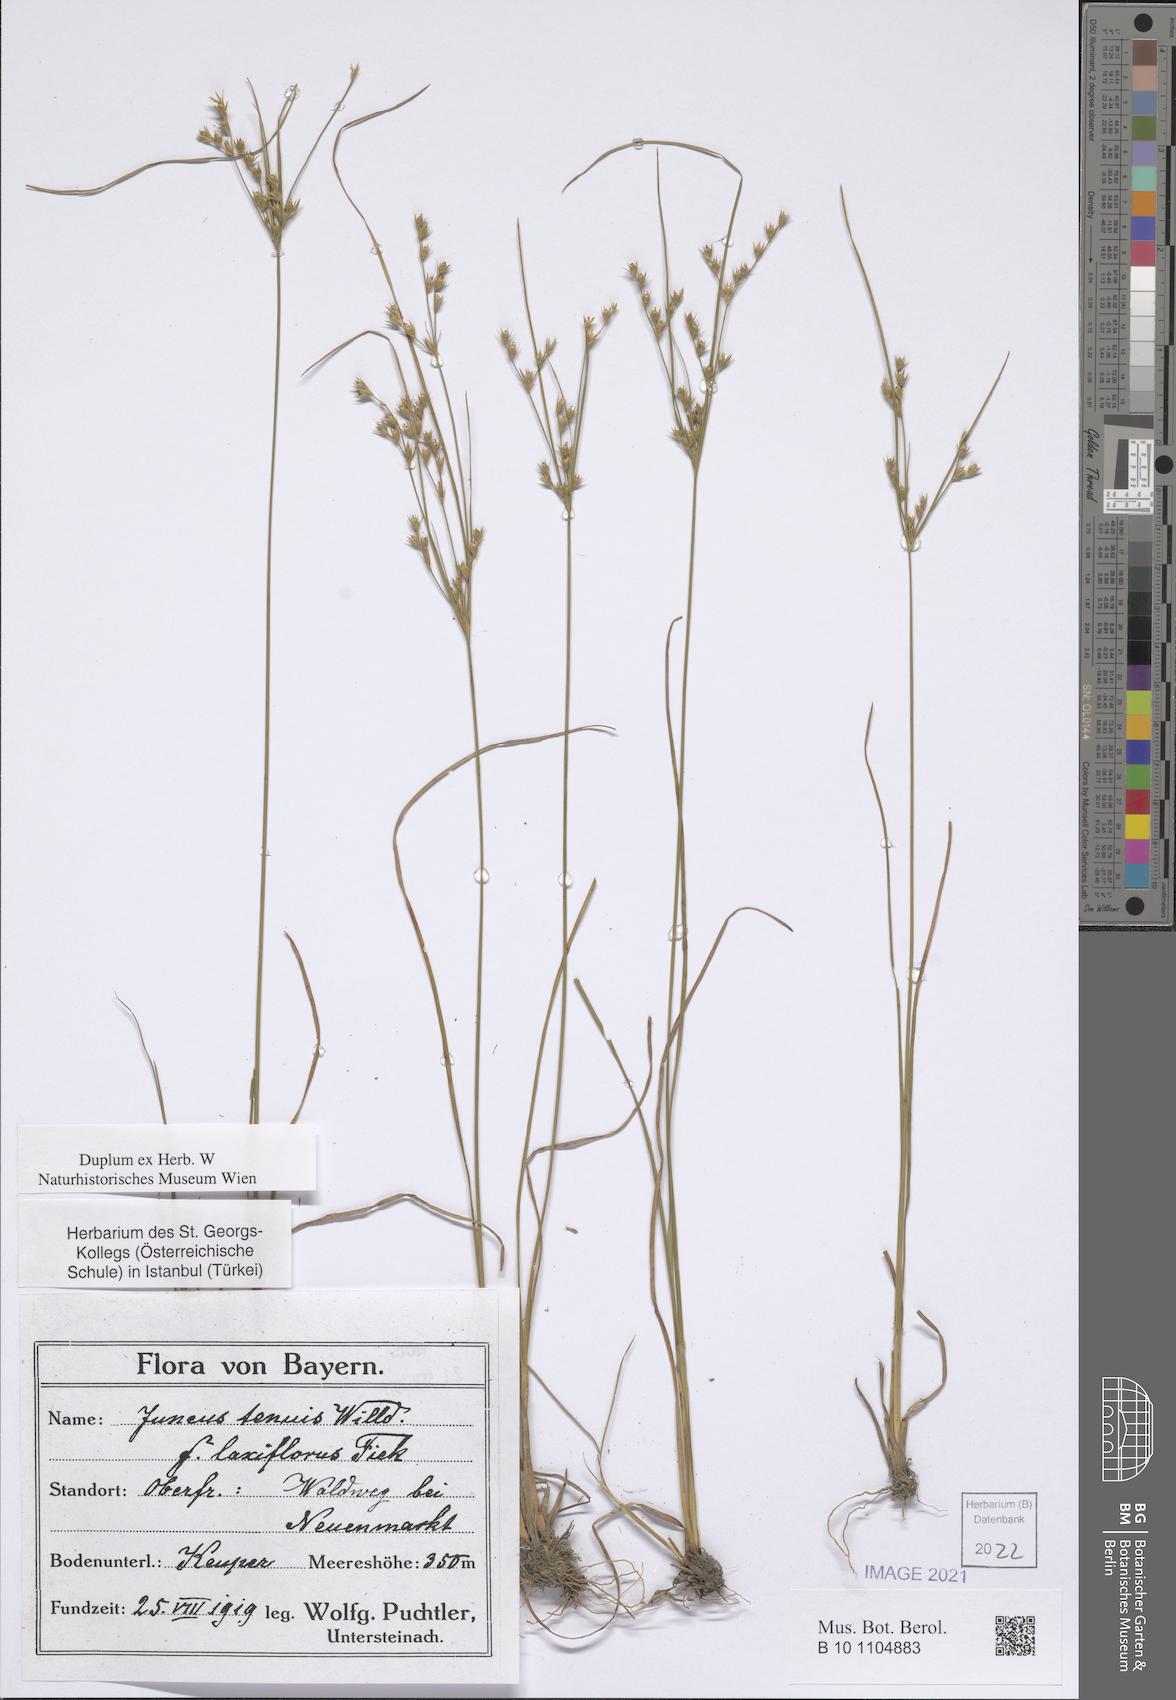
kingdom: Plantae
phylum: Tracheophyta
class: Liliopsida
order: Poales
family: Juncaceae
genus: Juncus
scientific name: Juncus tenuis
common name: Slender rush
